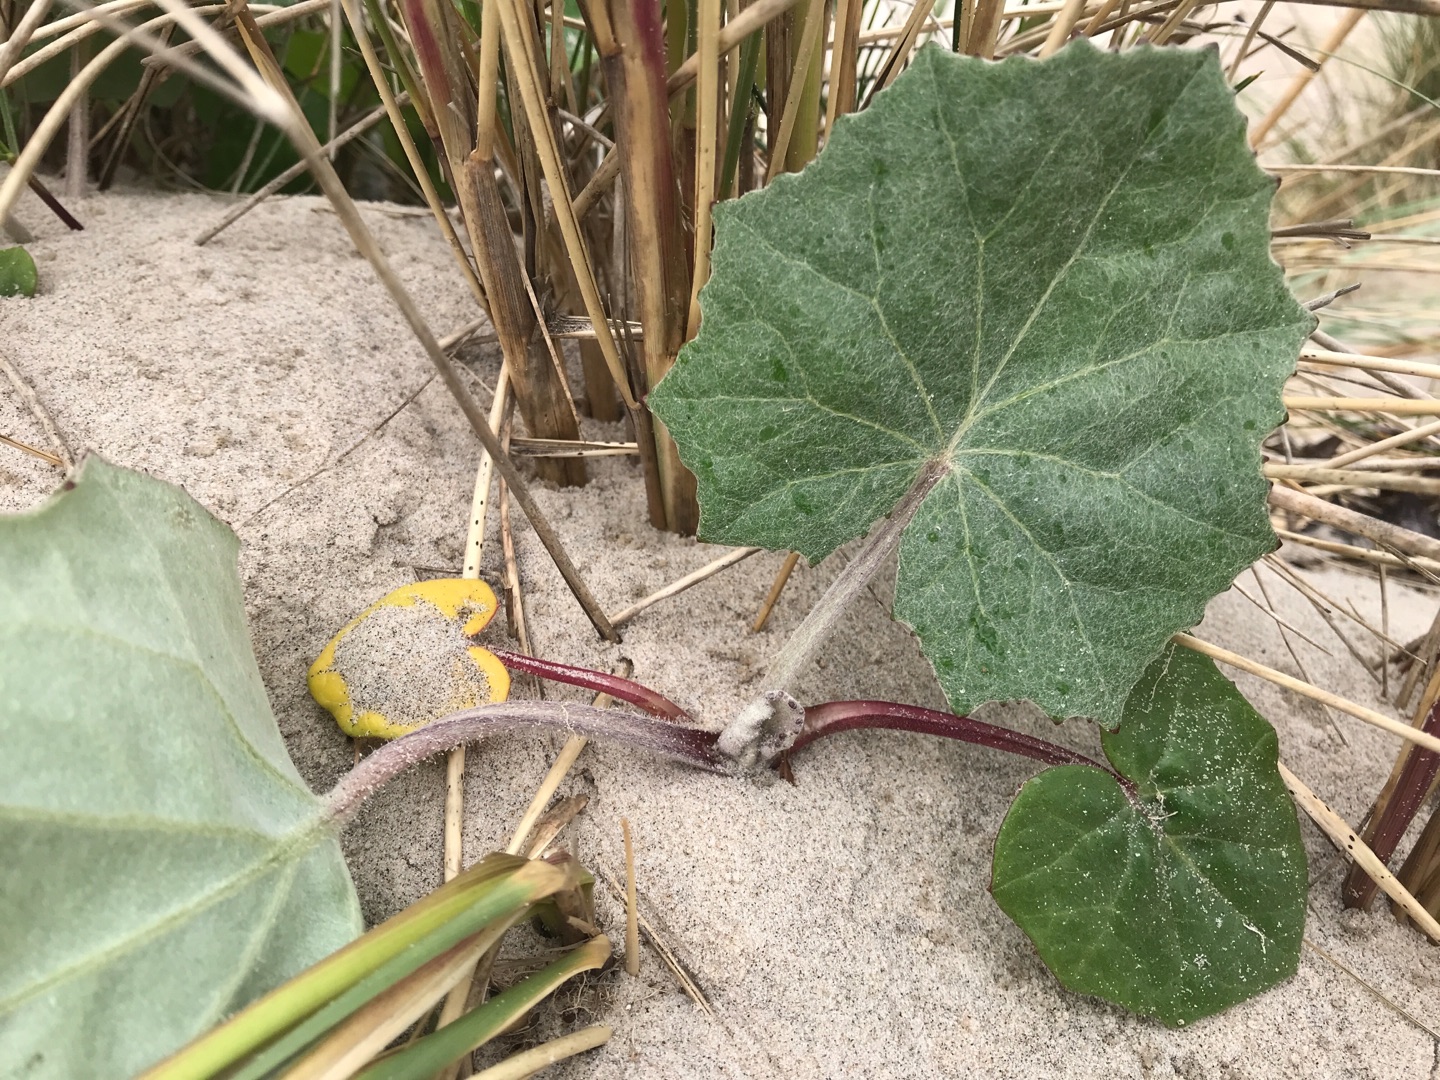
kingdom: Plantae
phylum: Tracheophyta
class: Magnoliopsida
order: Asterales
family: Asteraceae
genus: Tussilago
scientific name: Tussilago farfara
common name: Følfod
